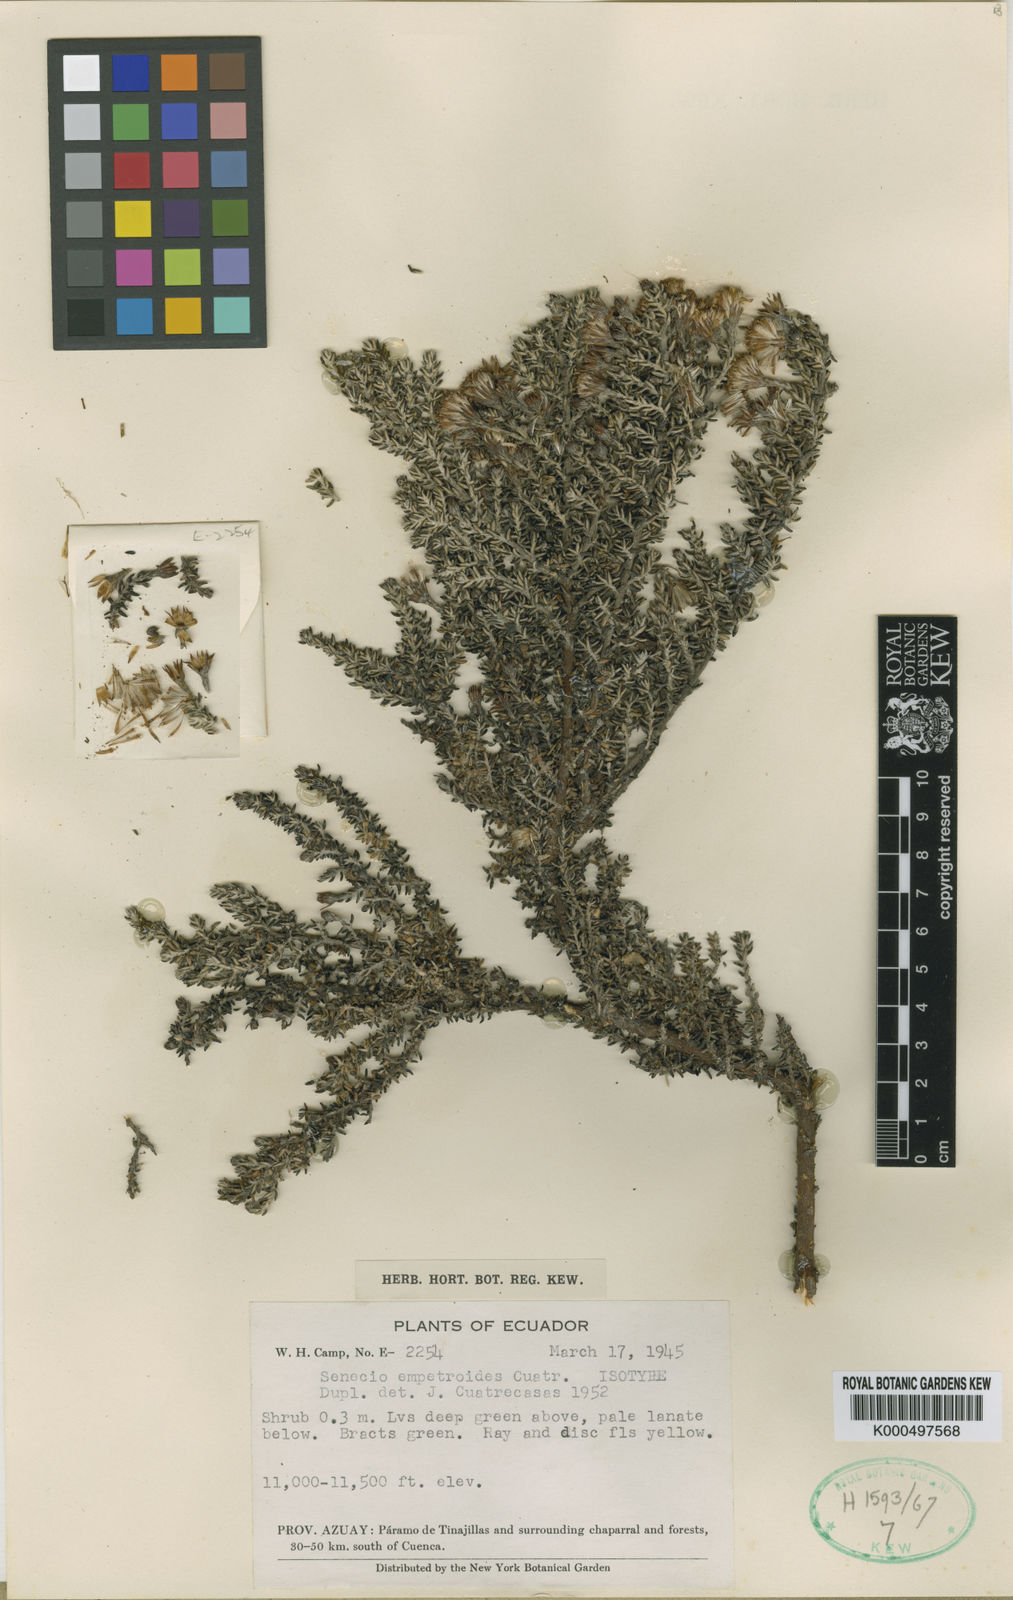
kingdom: Plantae
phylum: Tracheophyta
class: Magnoliopsida
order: Asterales
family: Asteraceae
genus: Monticalia
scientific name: Monticalia empetroides
